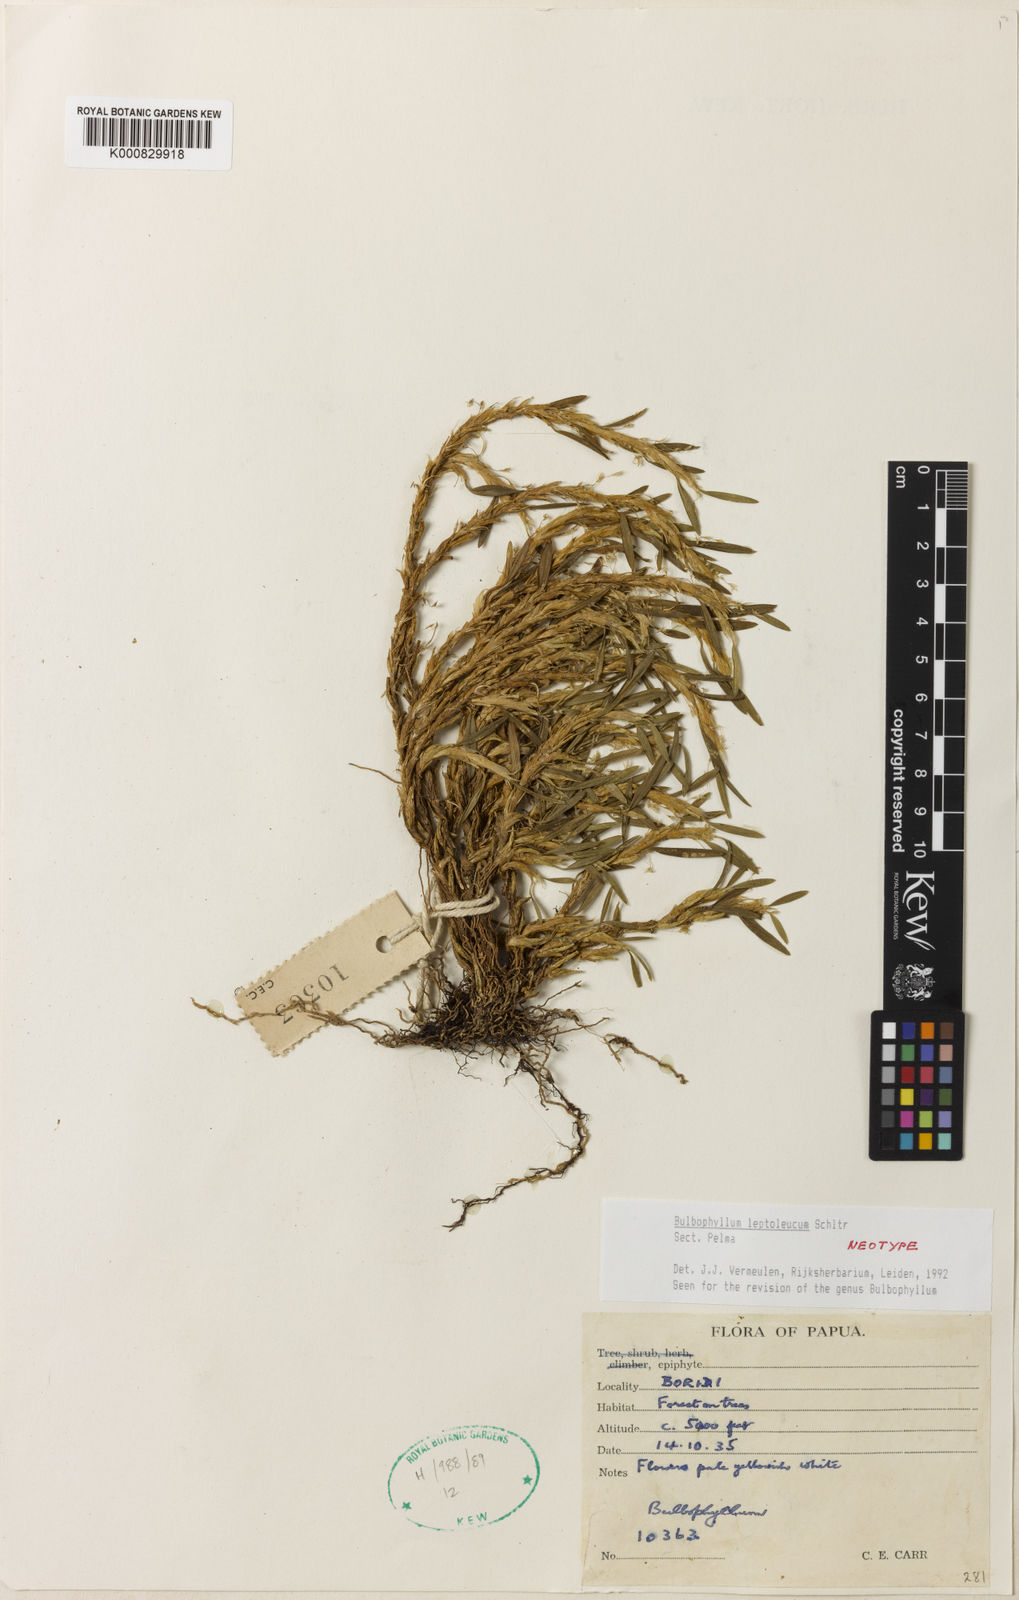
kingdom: Plantae
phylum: Tracheophyta
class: Liliopsida
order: Asparagales
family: Orchidaceae
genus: Bulbophyllum
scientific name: Bulbophyllum
